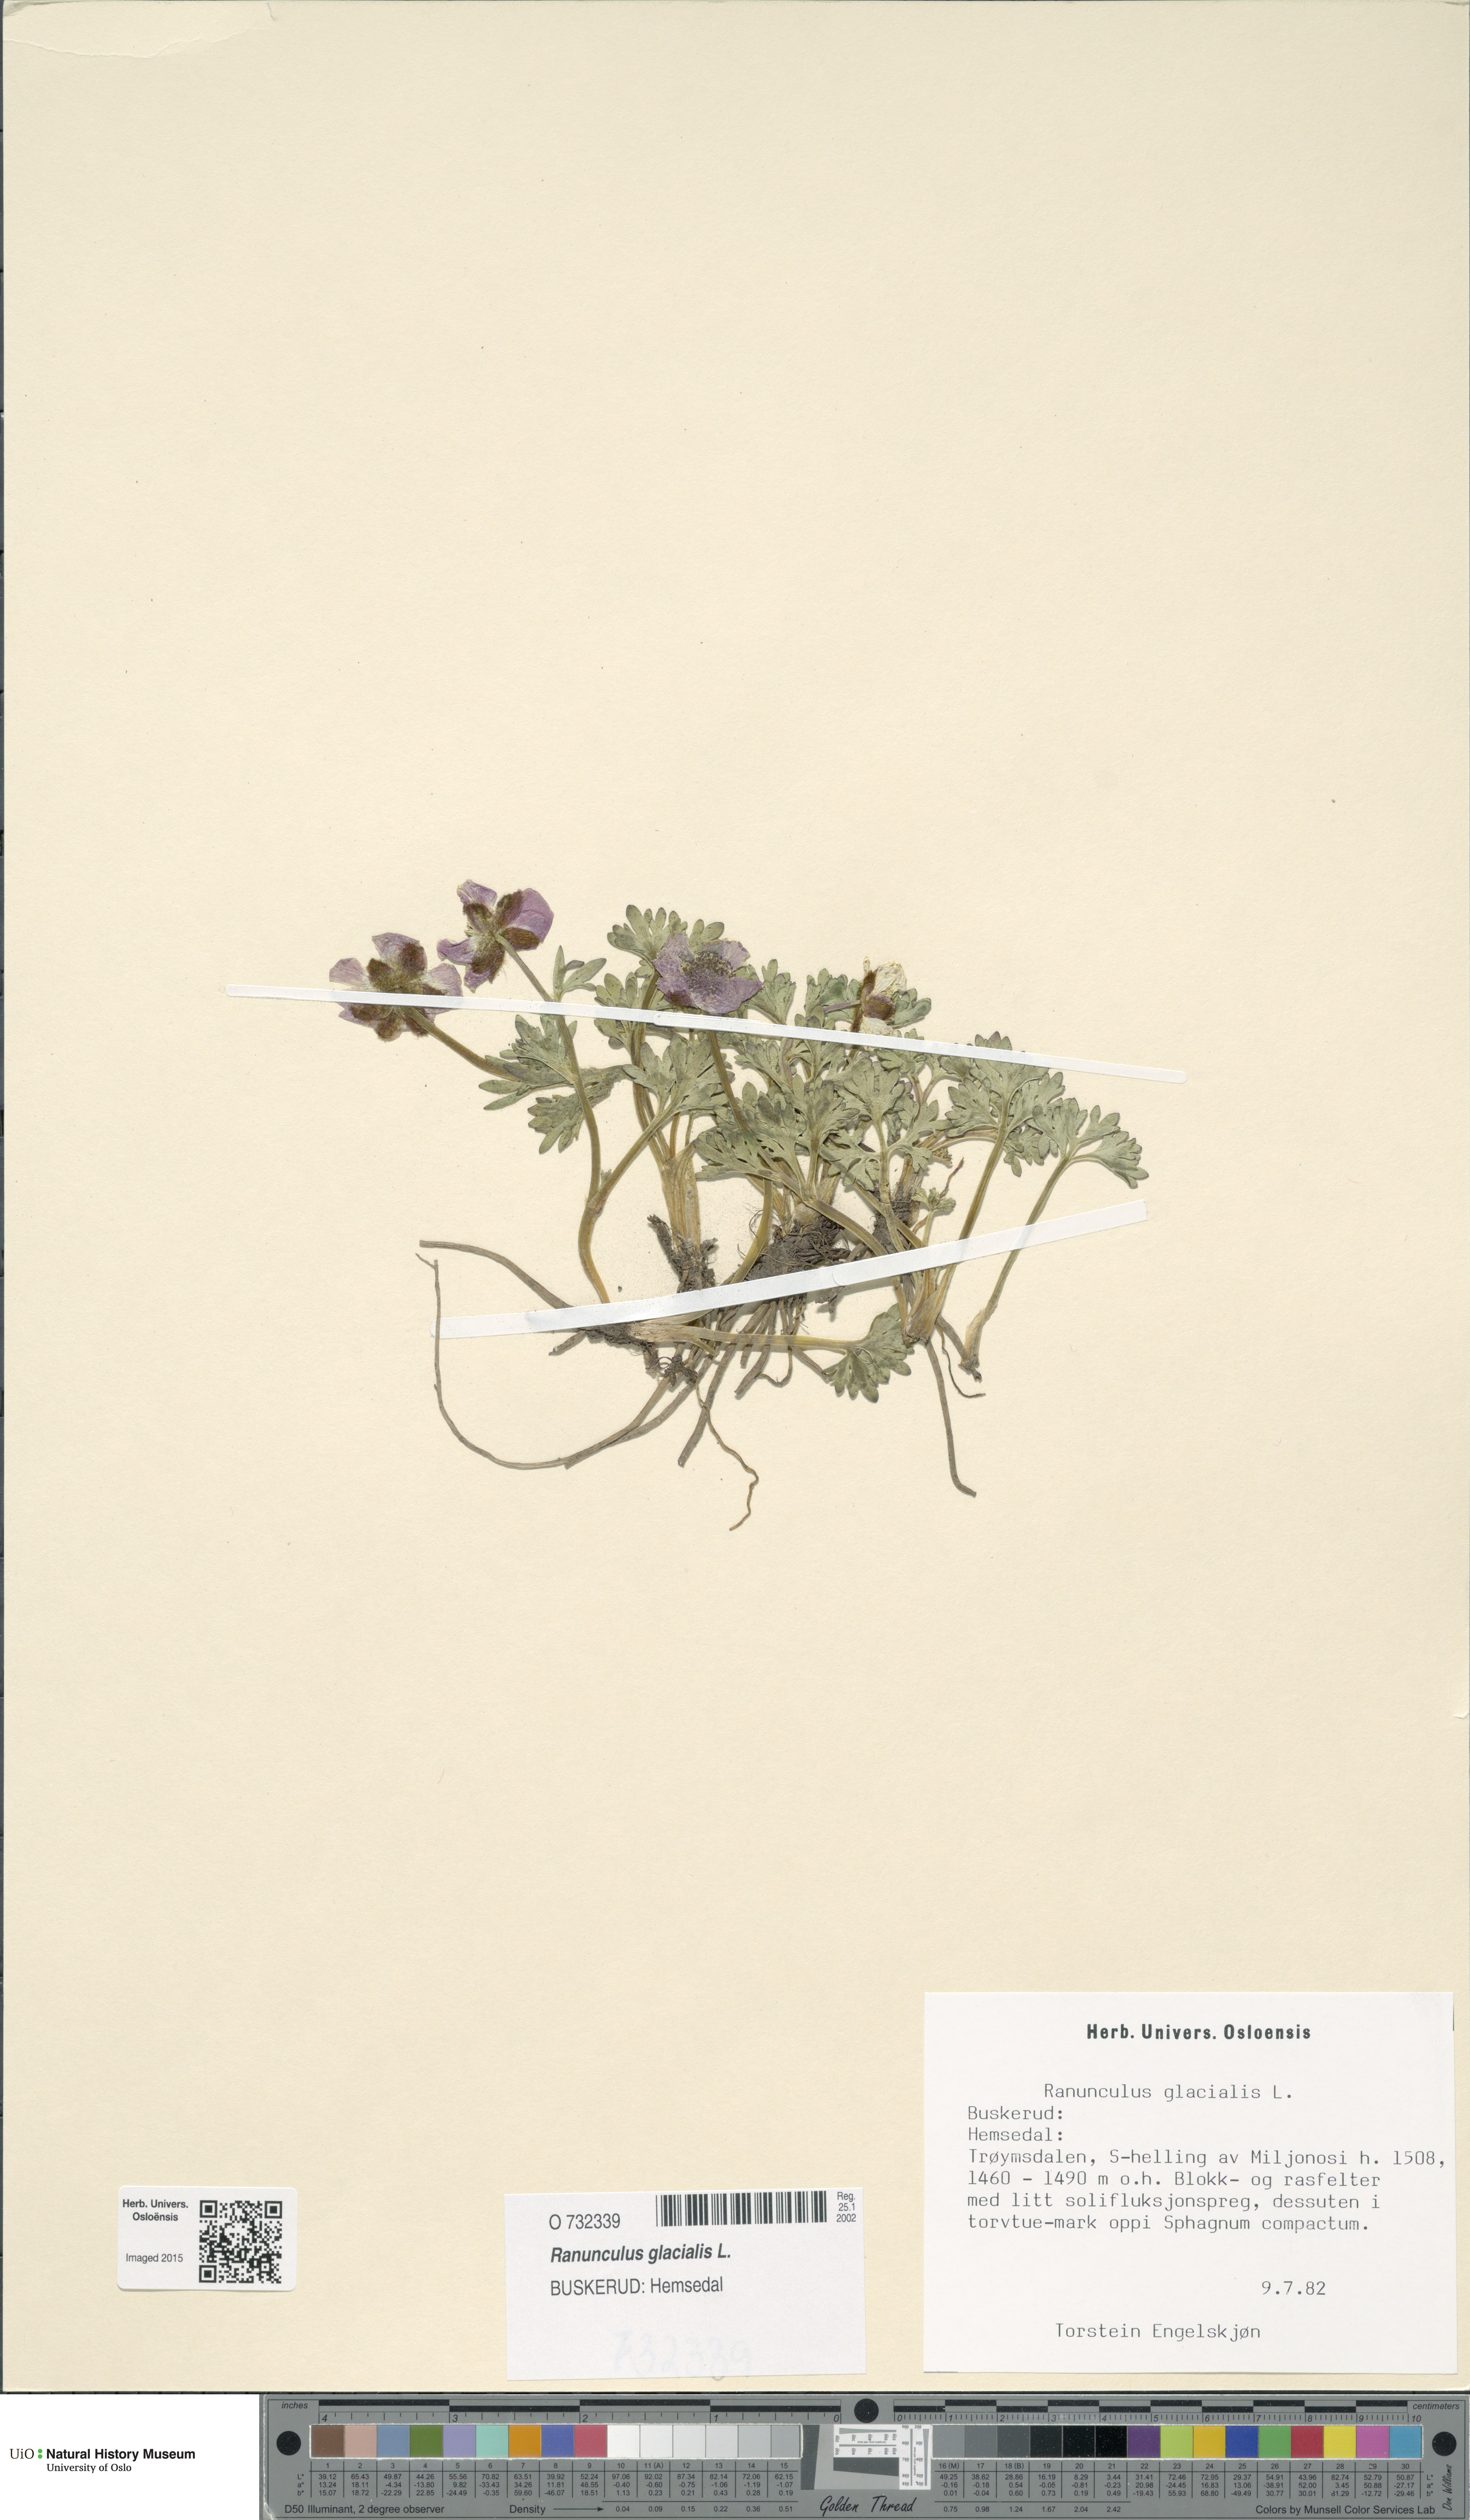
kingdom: Plantae
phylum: Tracheophyta
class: Magnoliopsida
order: Ranunculales
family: Ranunculaceae
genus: Ranunculus
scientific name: Ranunculus glacialis
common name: Glacier buttercup
